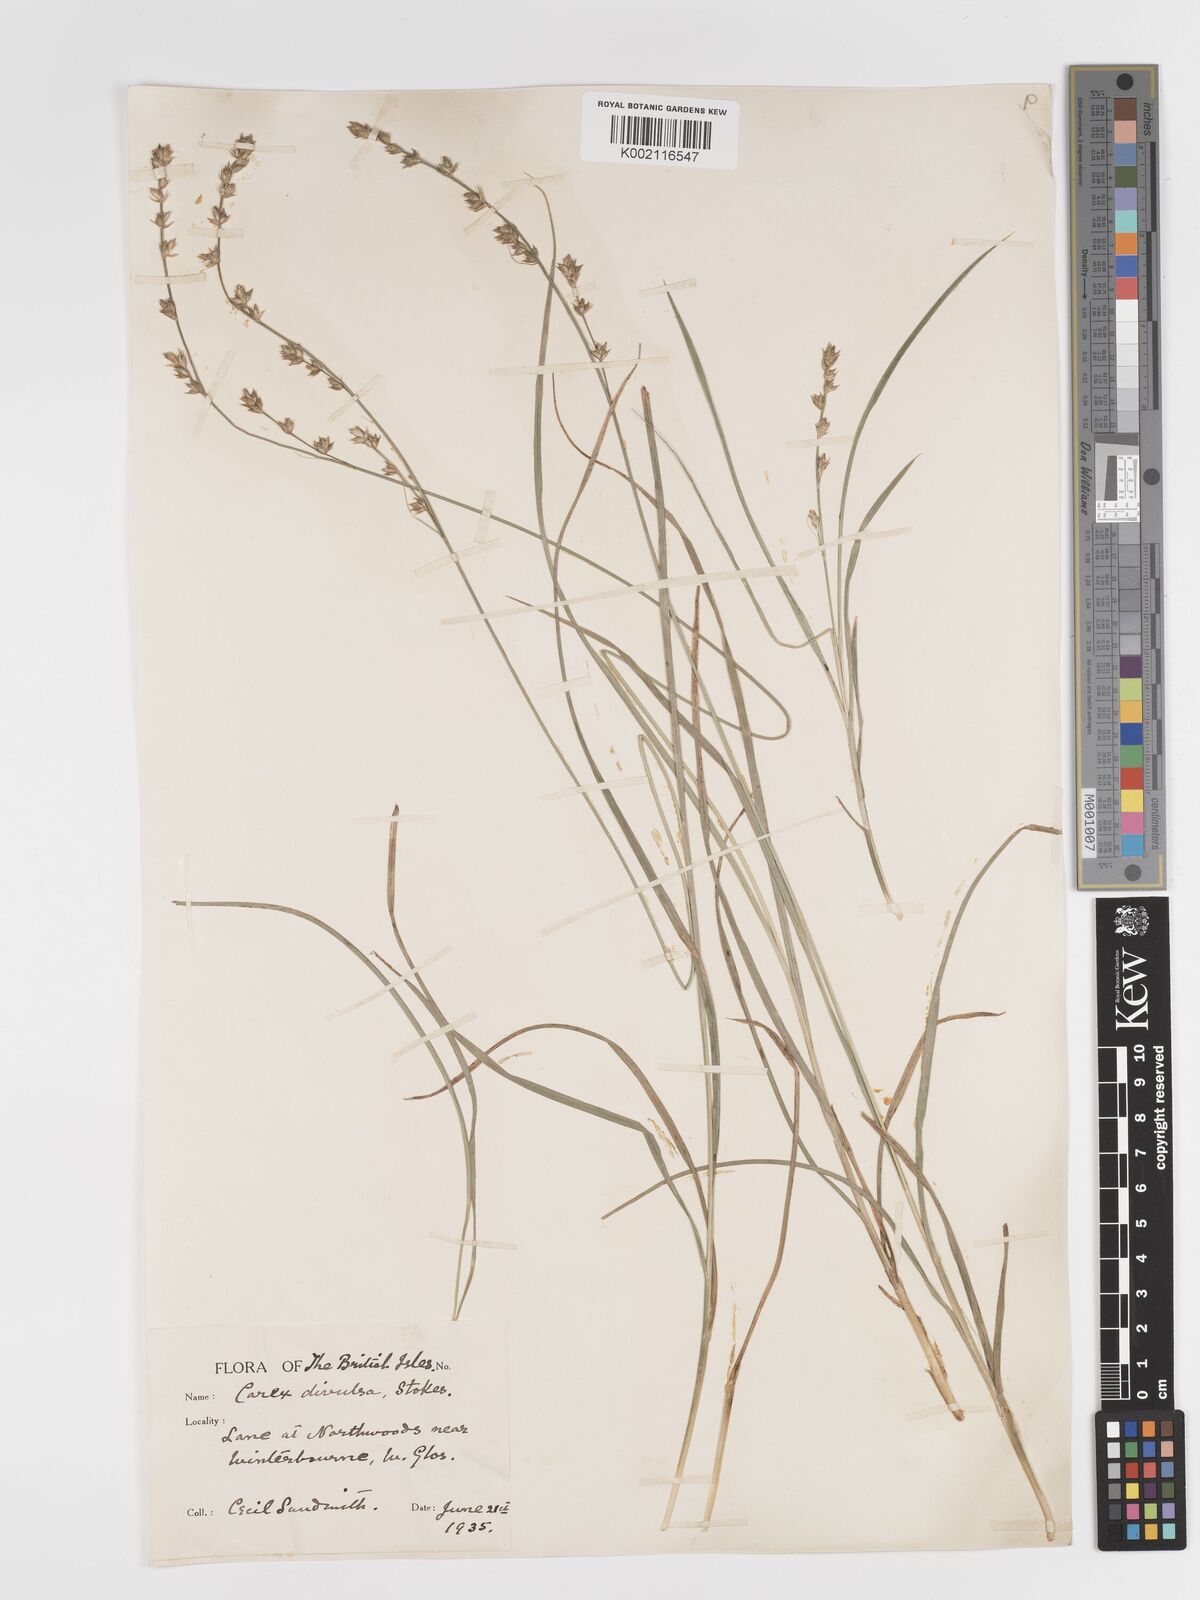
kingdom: Plantae
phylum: Tracheophyta
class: Liliopsida
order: Poales
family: Cyperaceae
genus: Carex
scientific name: Carex divulsa
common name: Grassland sedge
